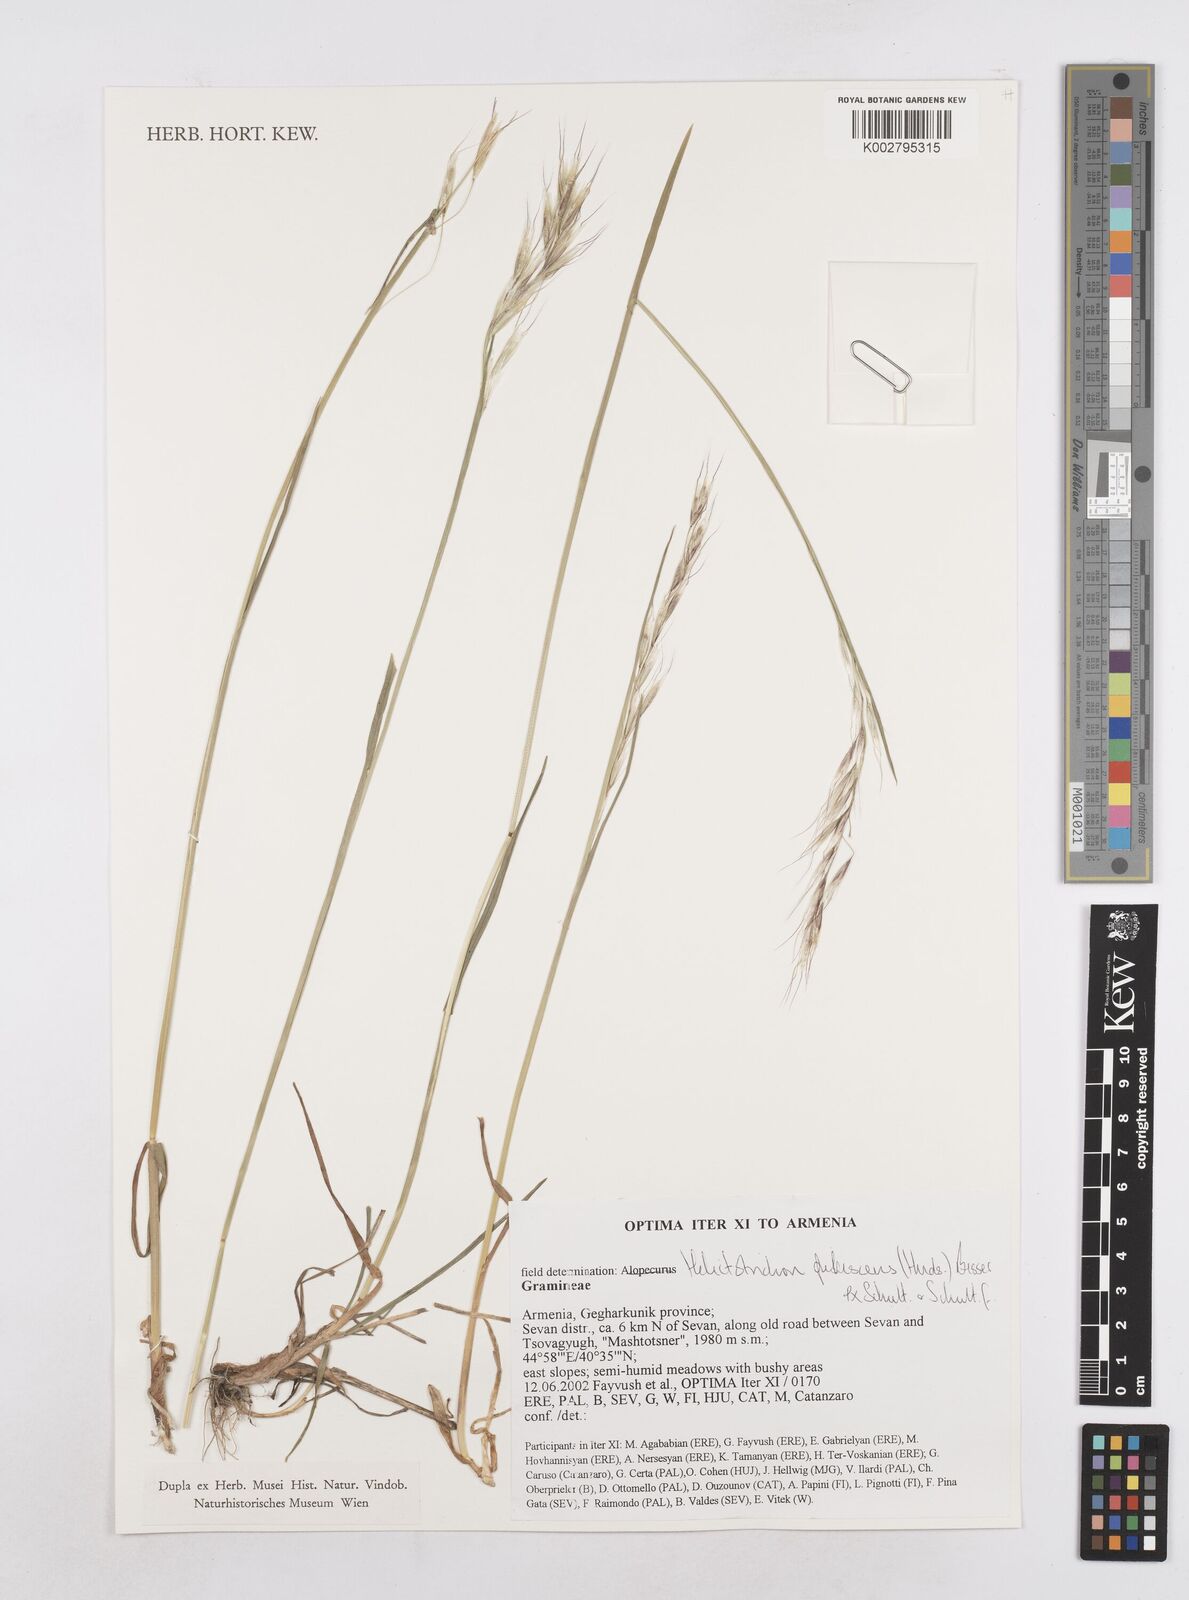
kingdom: Plantae
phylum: Tracheophyta
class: Liliopsida
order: Poales
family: Poaceae
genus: Avenula
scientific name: Avenula pubescens
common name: Downy alpine oatgrass
